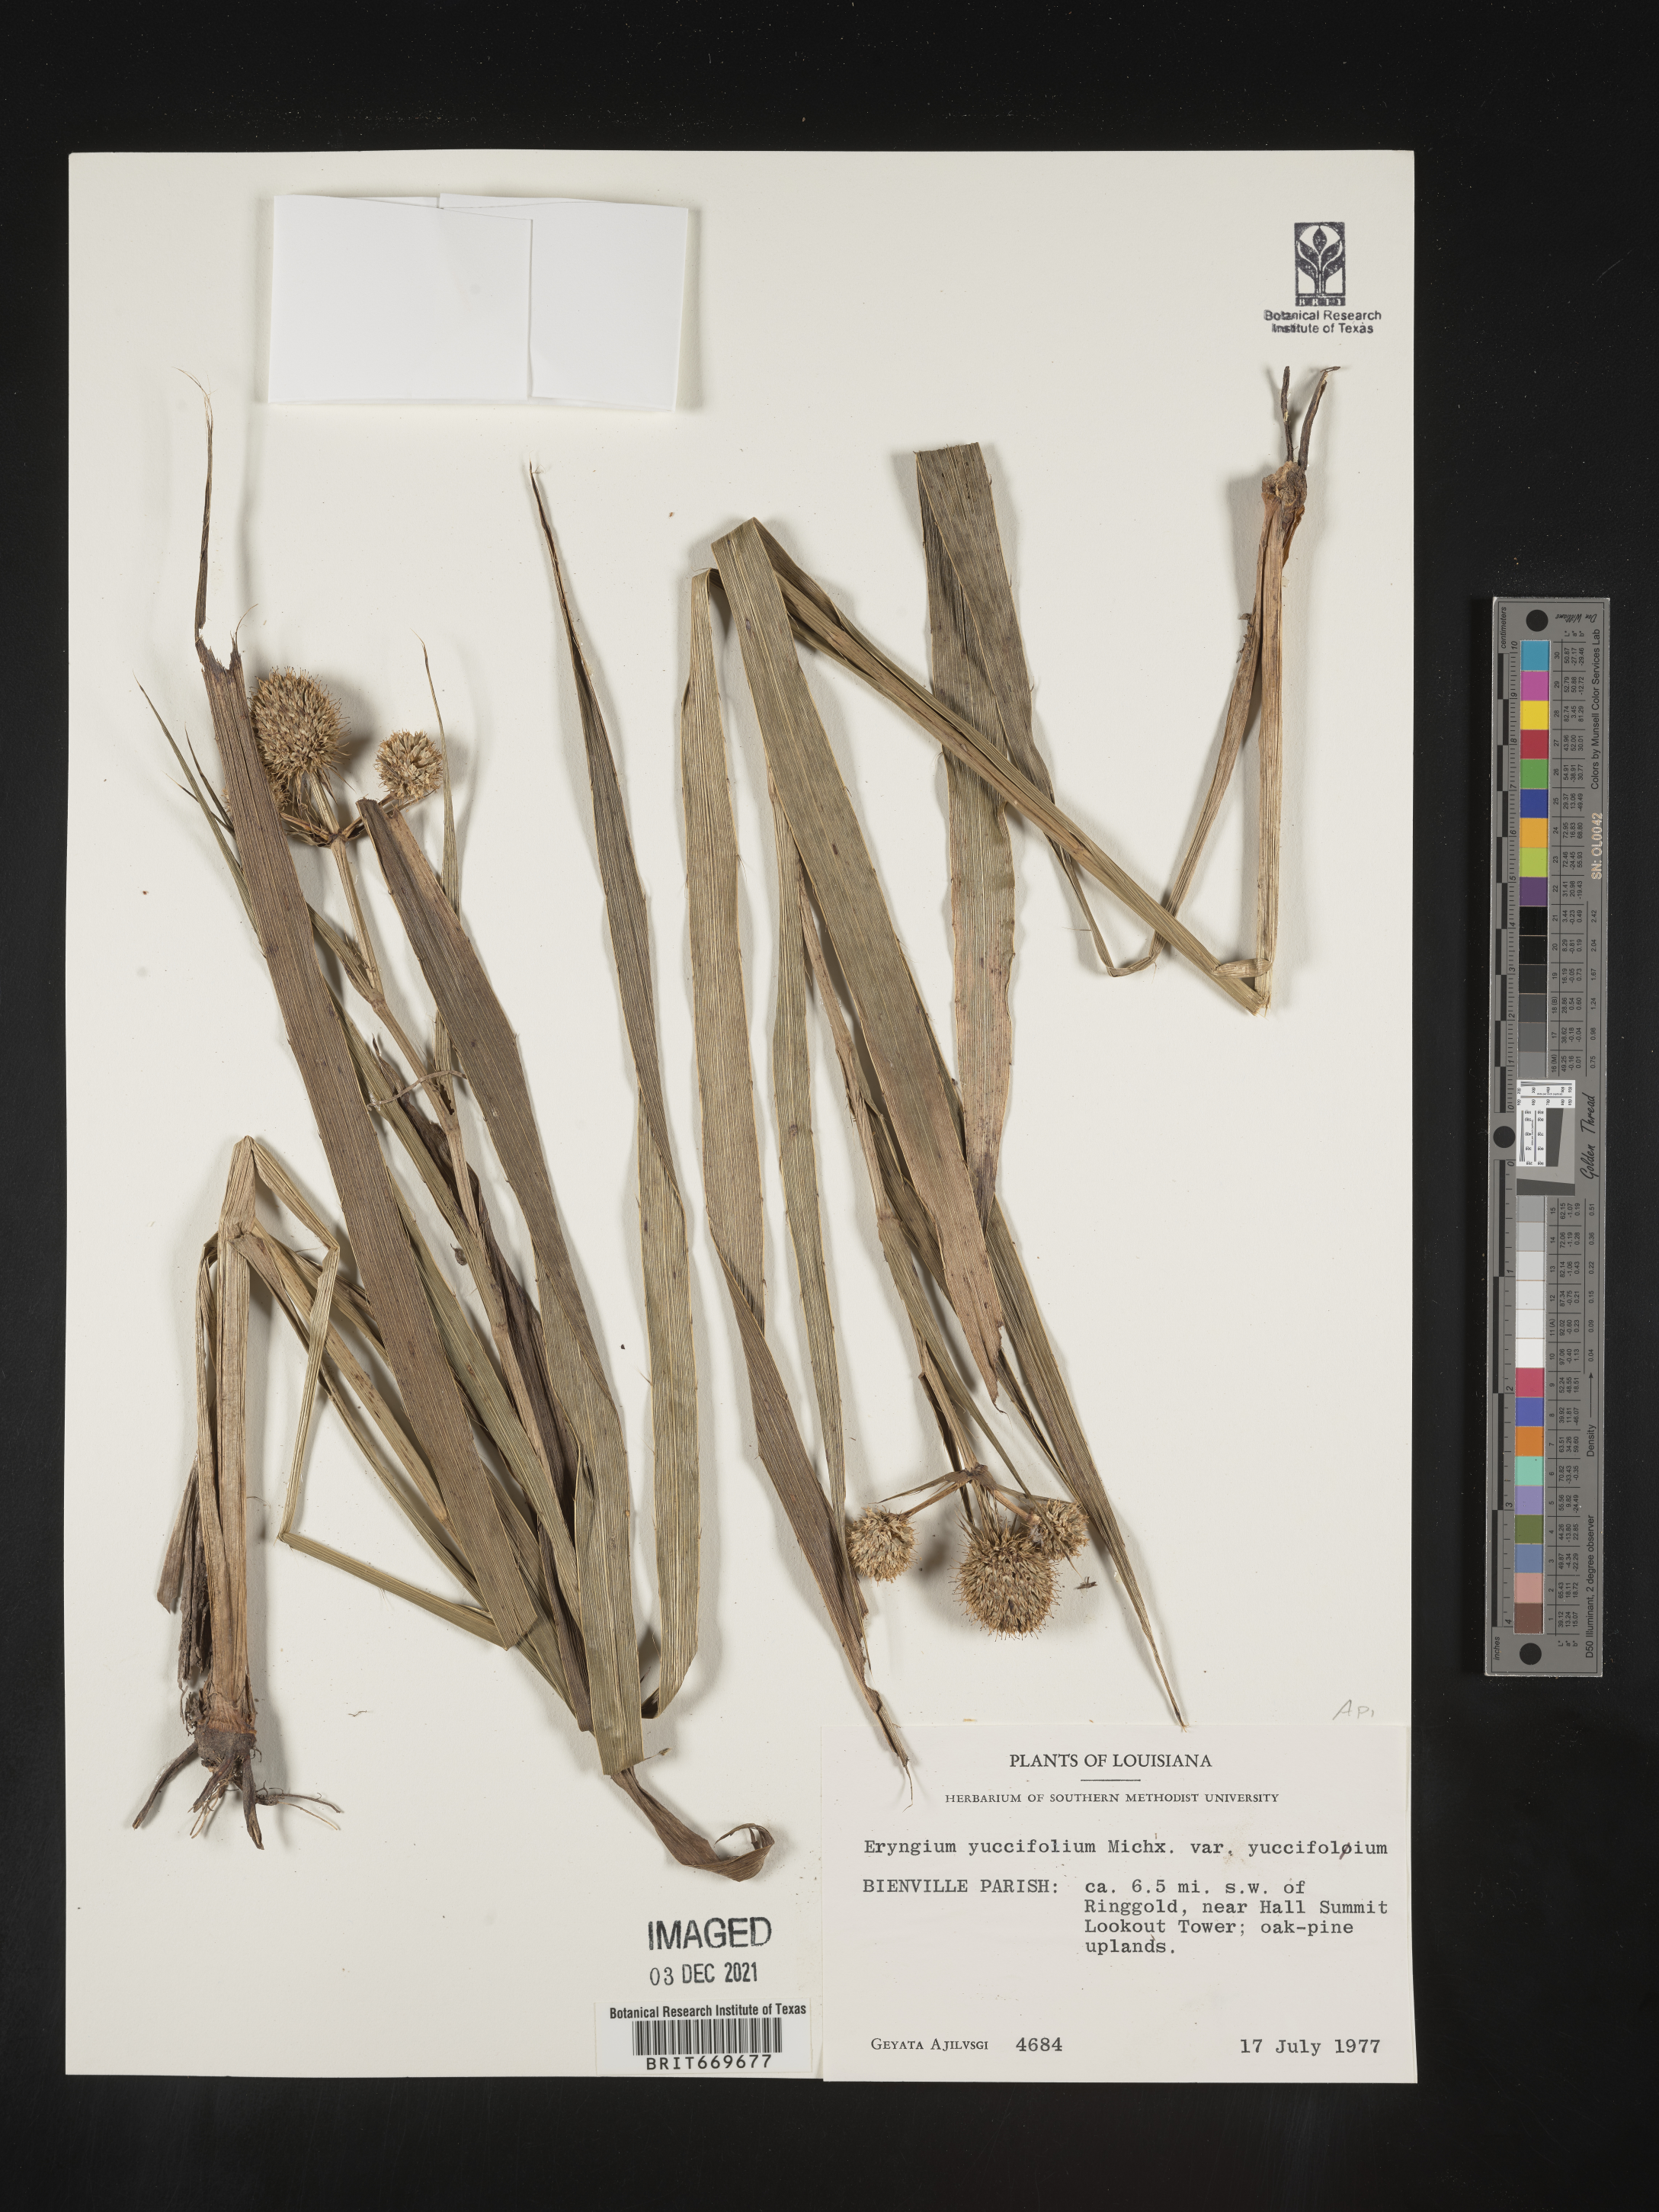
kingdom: Plantae
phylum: Tracheophyta
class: Magnoliopsida
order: Apiales
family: Apiaceae
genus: Eryngium
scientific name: Eryngium yuccifolium
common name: Button eryngo
